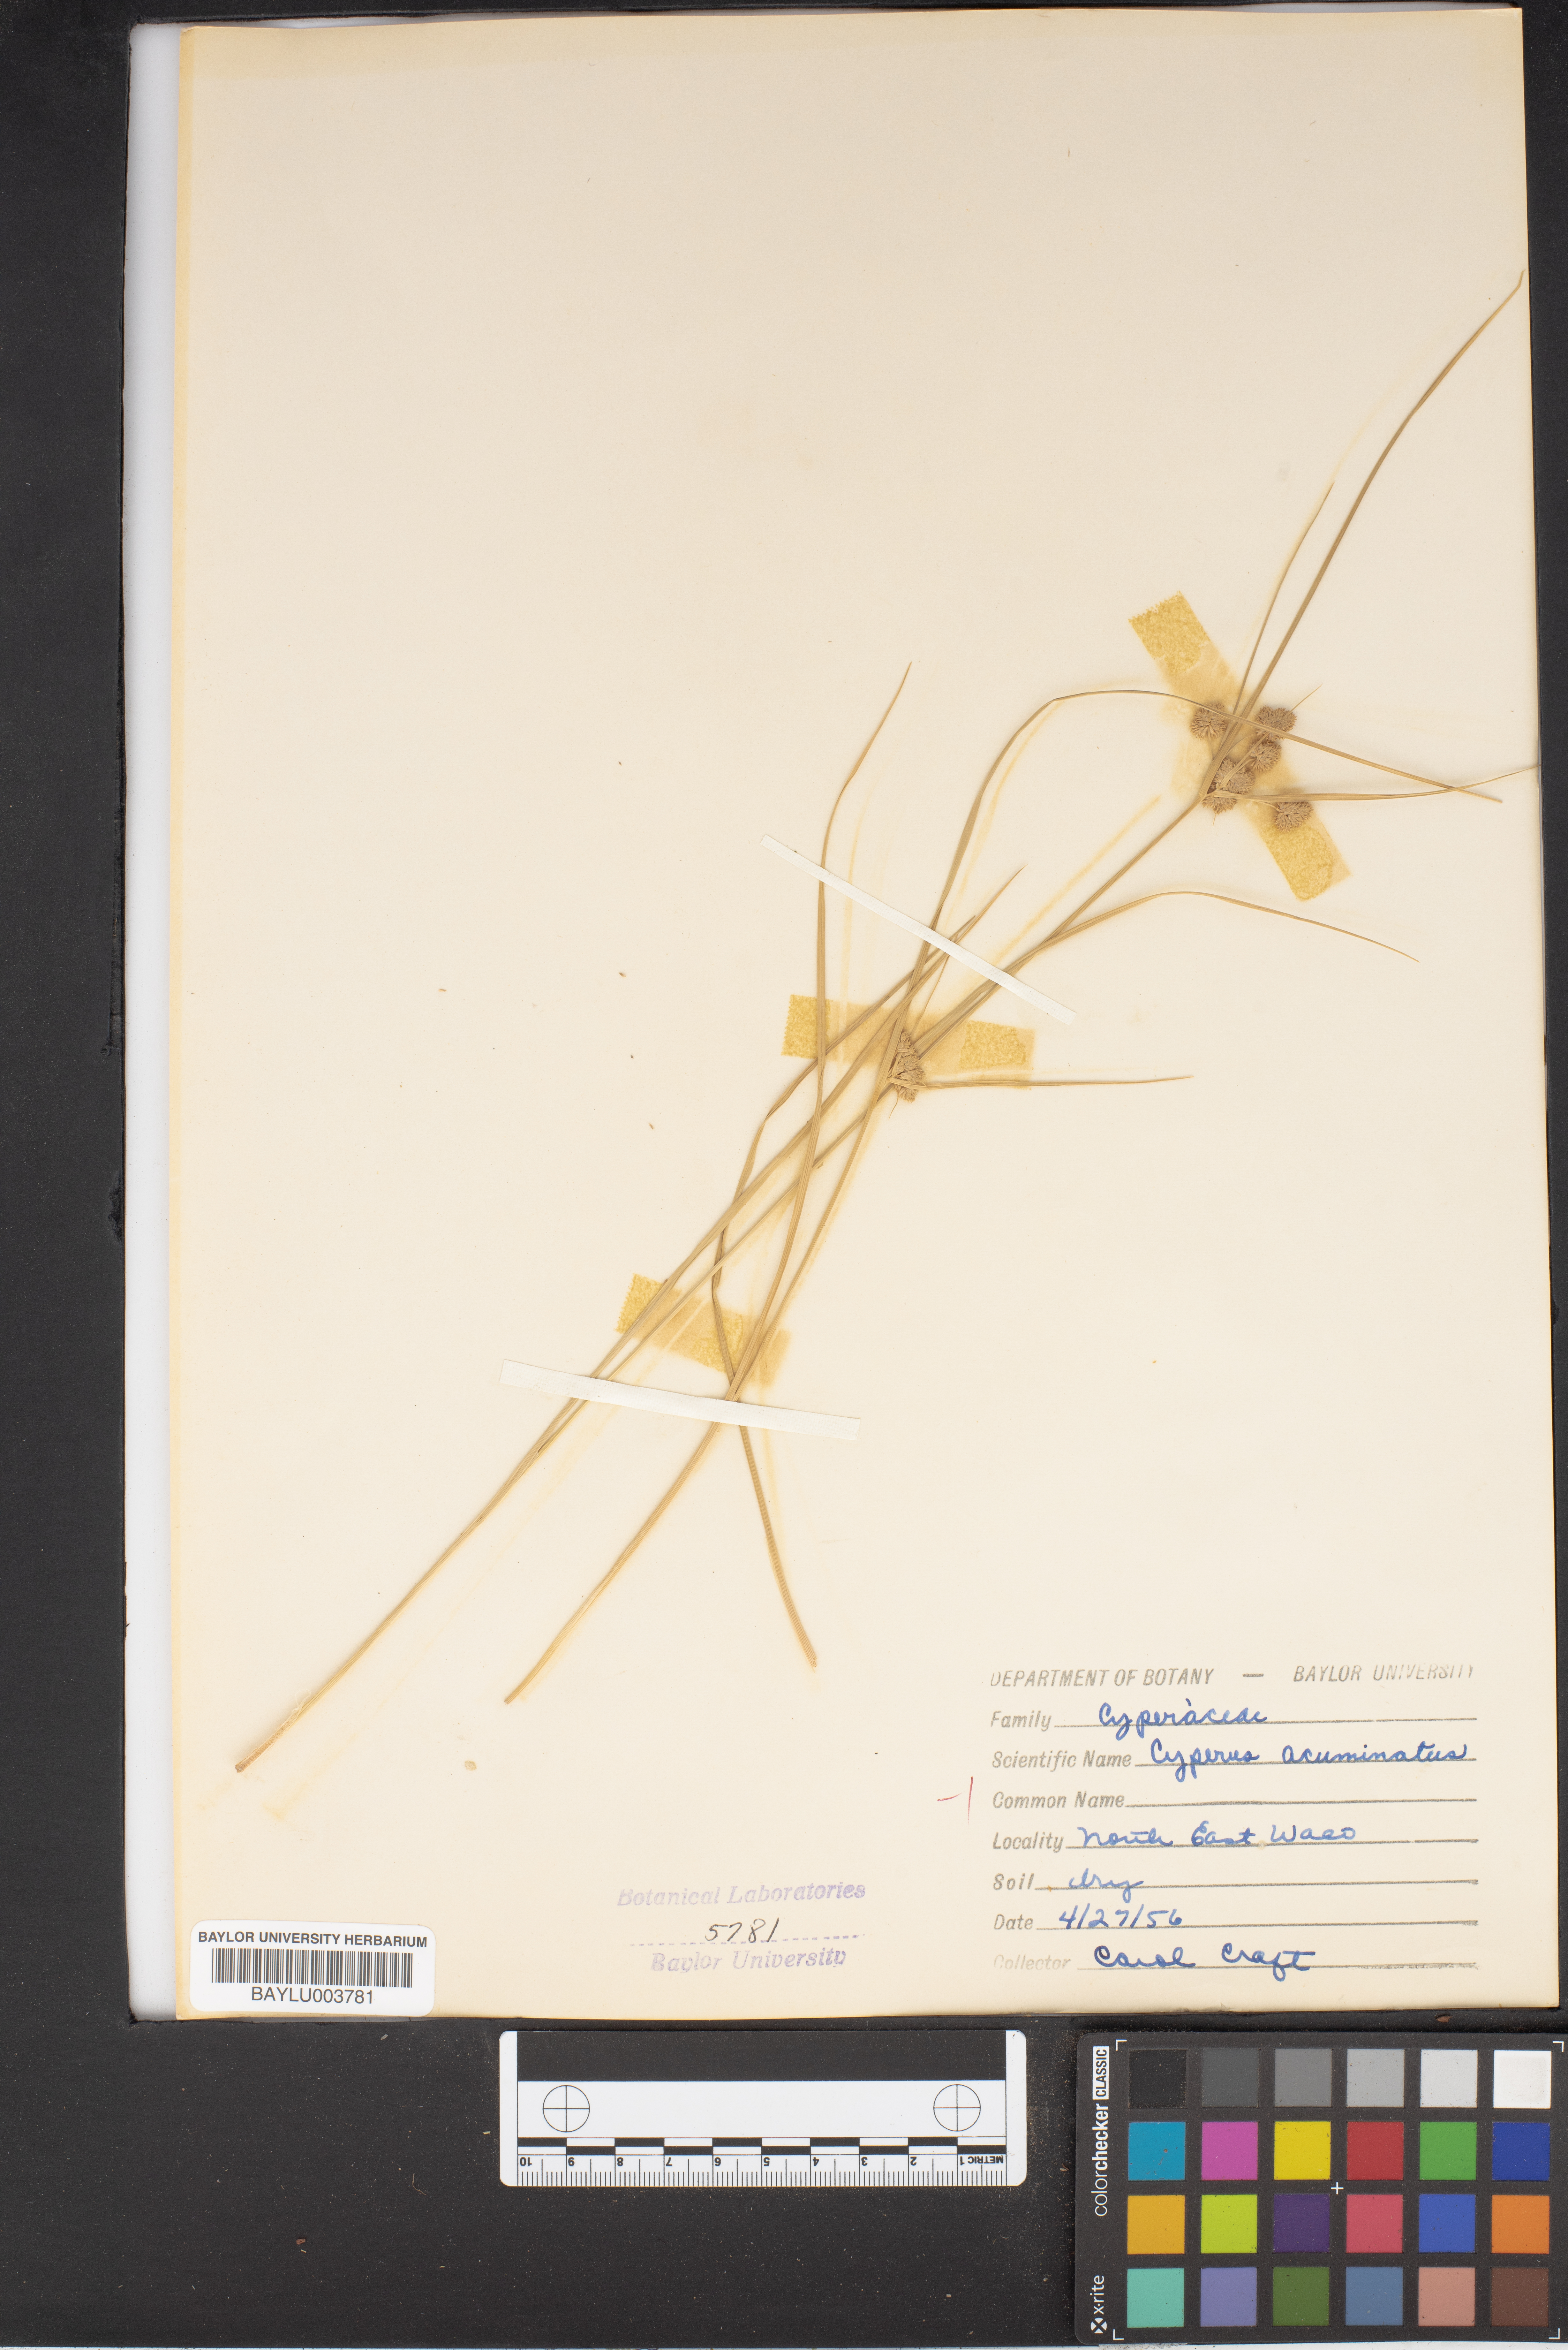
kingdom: Plantae
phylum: Tracheophyta
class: Liliopsida
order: Poales
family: Cyperaceae
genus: Cyperus
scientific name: Cyperus acuminatus
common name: Short-pointed cyperus
